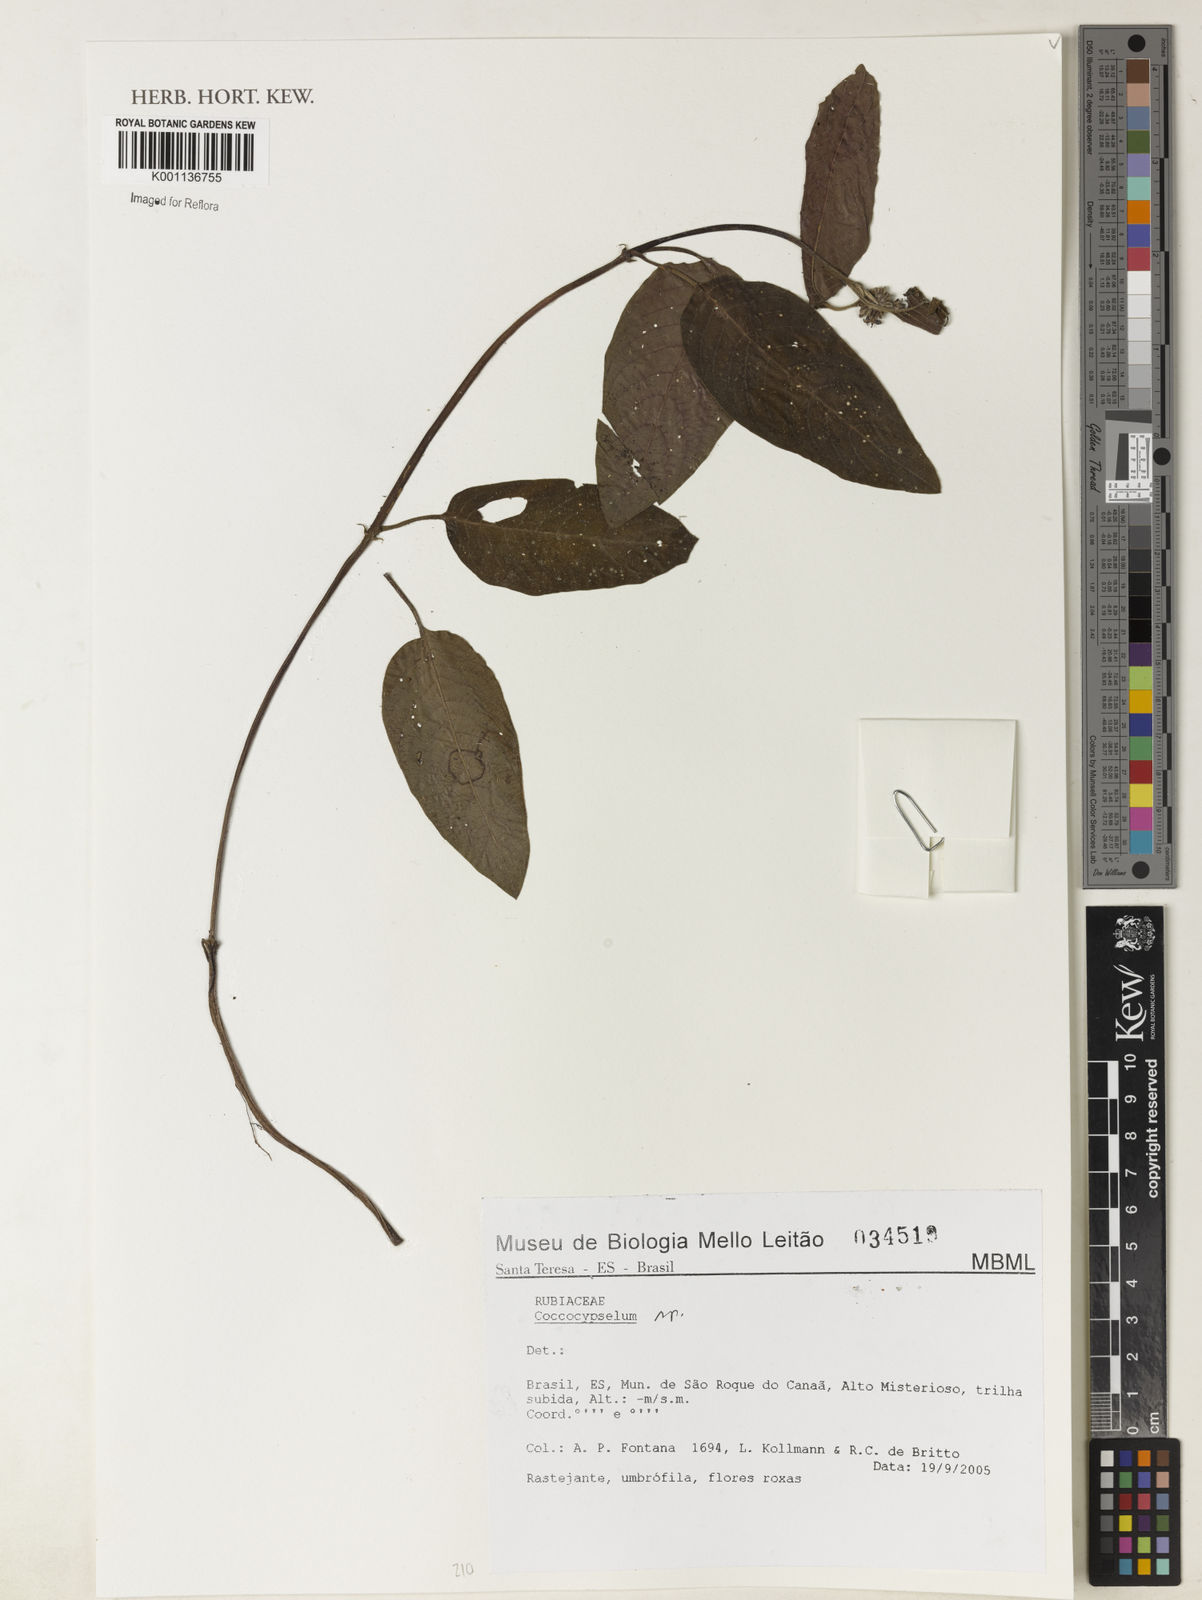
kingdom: Plantae
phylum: Tracheophyta
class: Magnoliopsida
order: Gentianales
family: Rubiaceae
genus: Coccocypselum
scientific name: Coccocypselum
